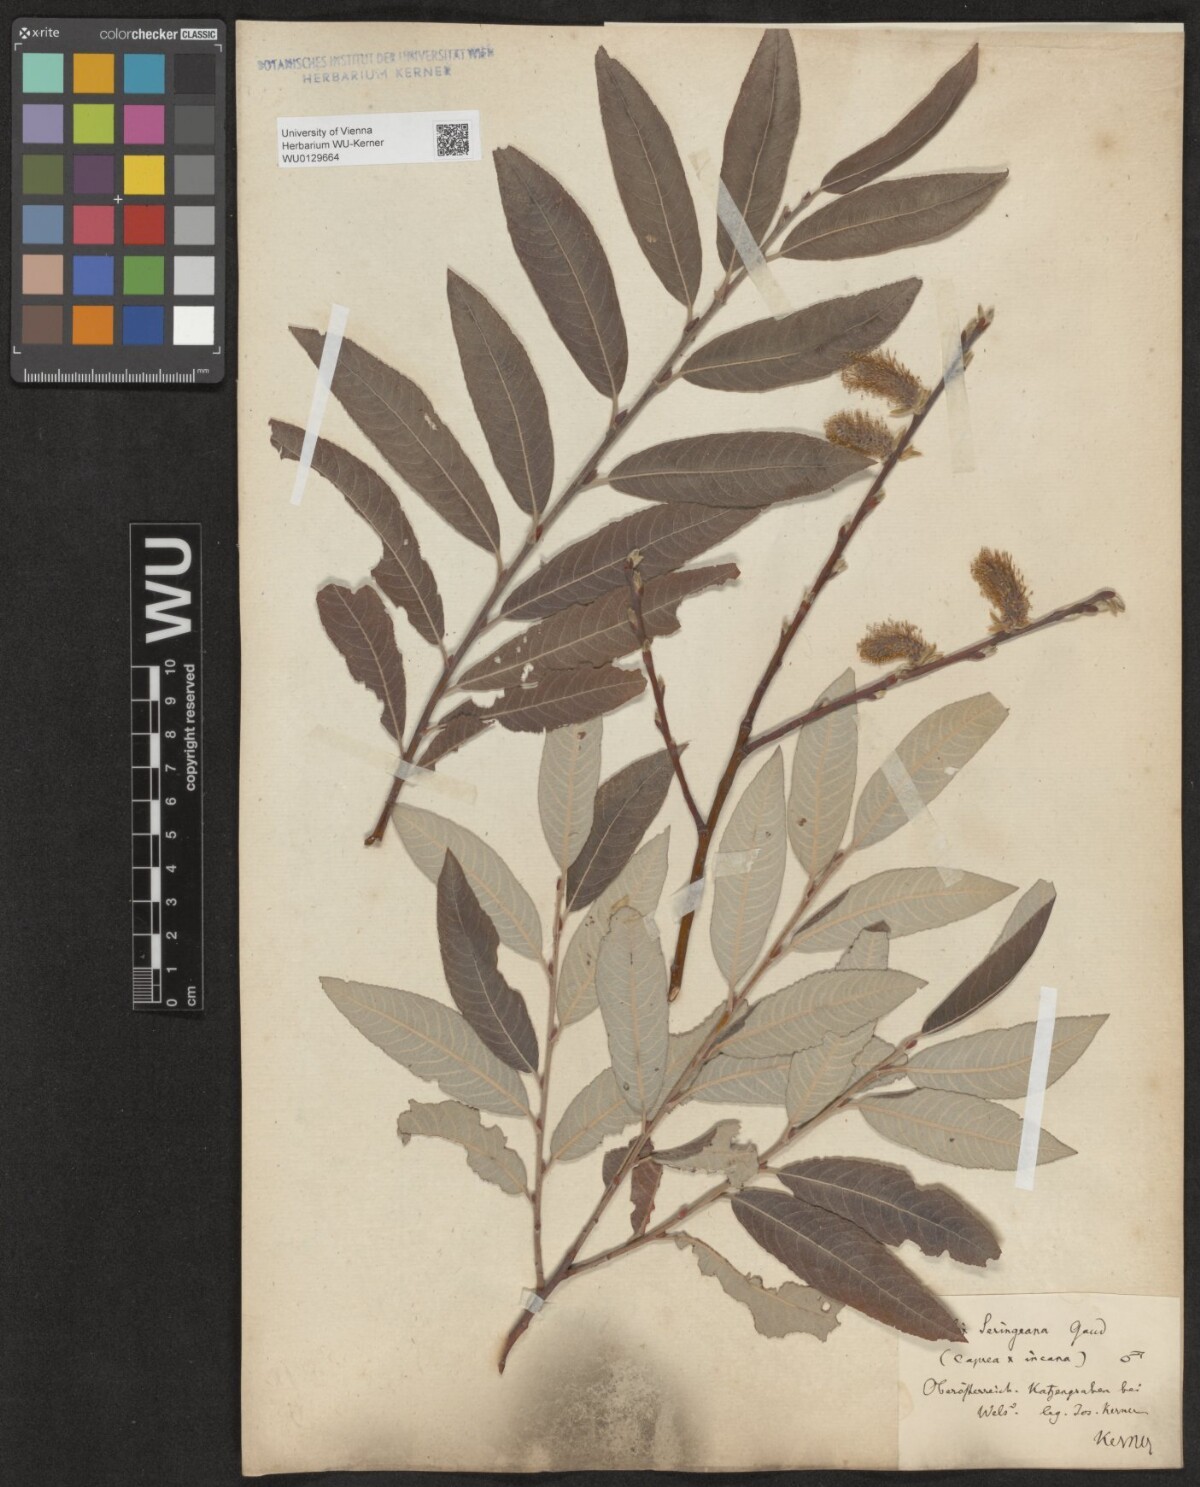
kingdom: Plantae
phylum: Tracheophyta
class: Magnoliopsida
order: Malpighiales
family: Salicaceae
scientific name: Salicaceae
